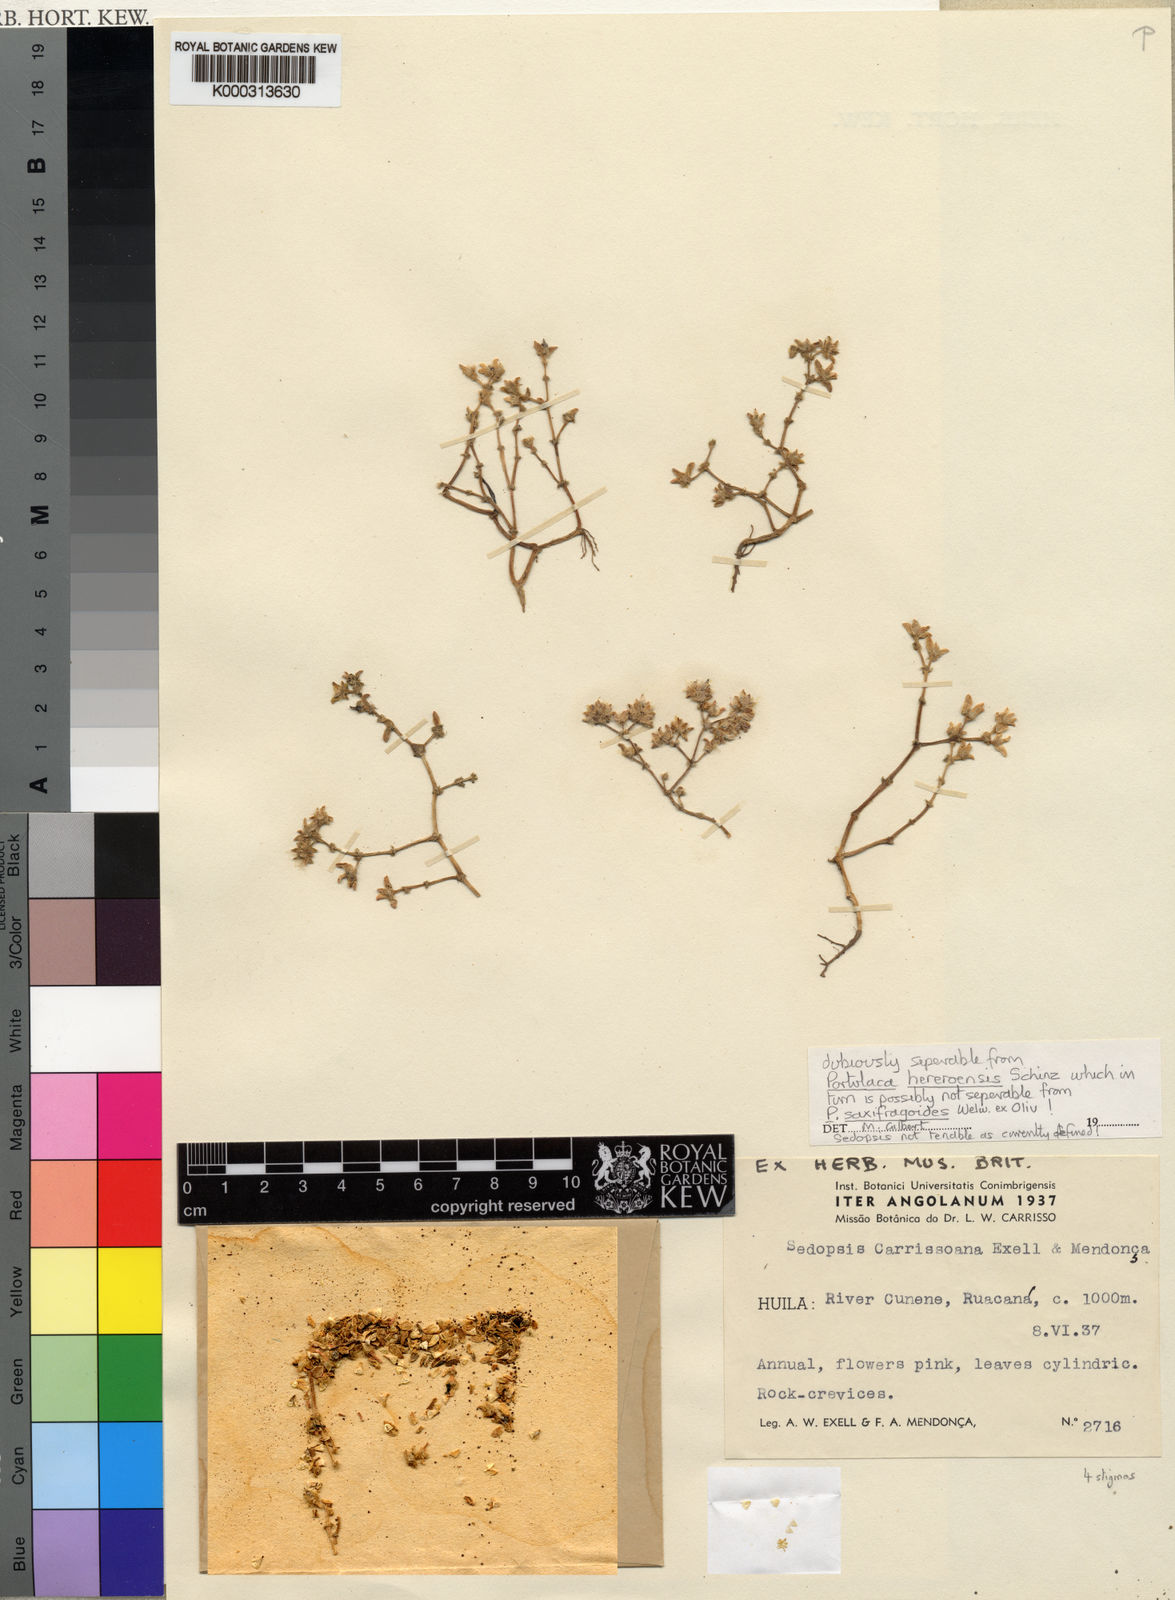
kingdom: Plantae
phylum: Tracheophyta
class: Magnoliopsida
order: Caryophyllales
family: Portulacaceae
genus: Portulaca
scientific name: Portulaca
